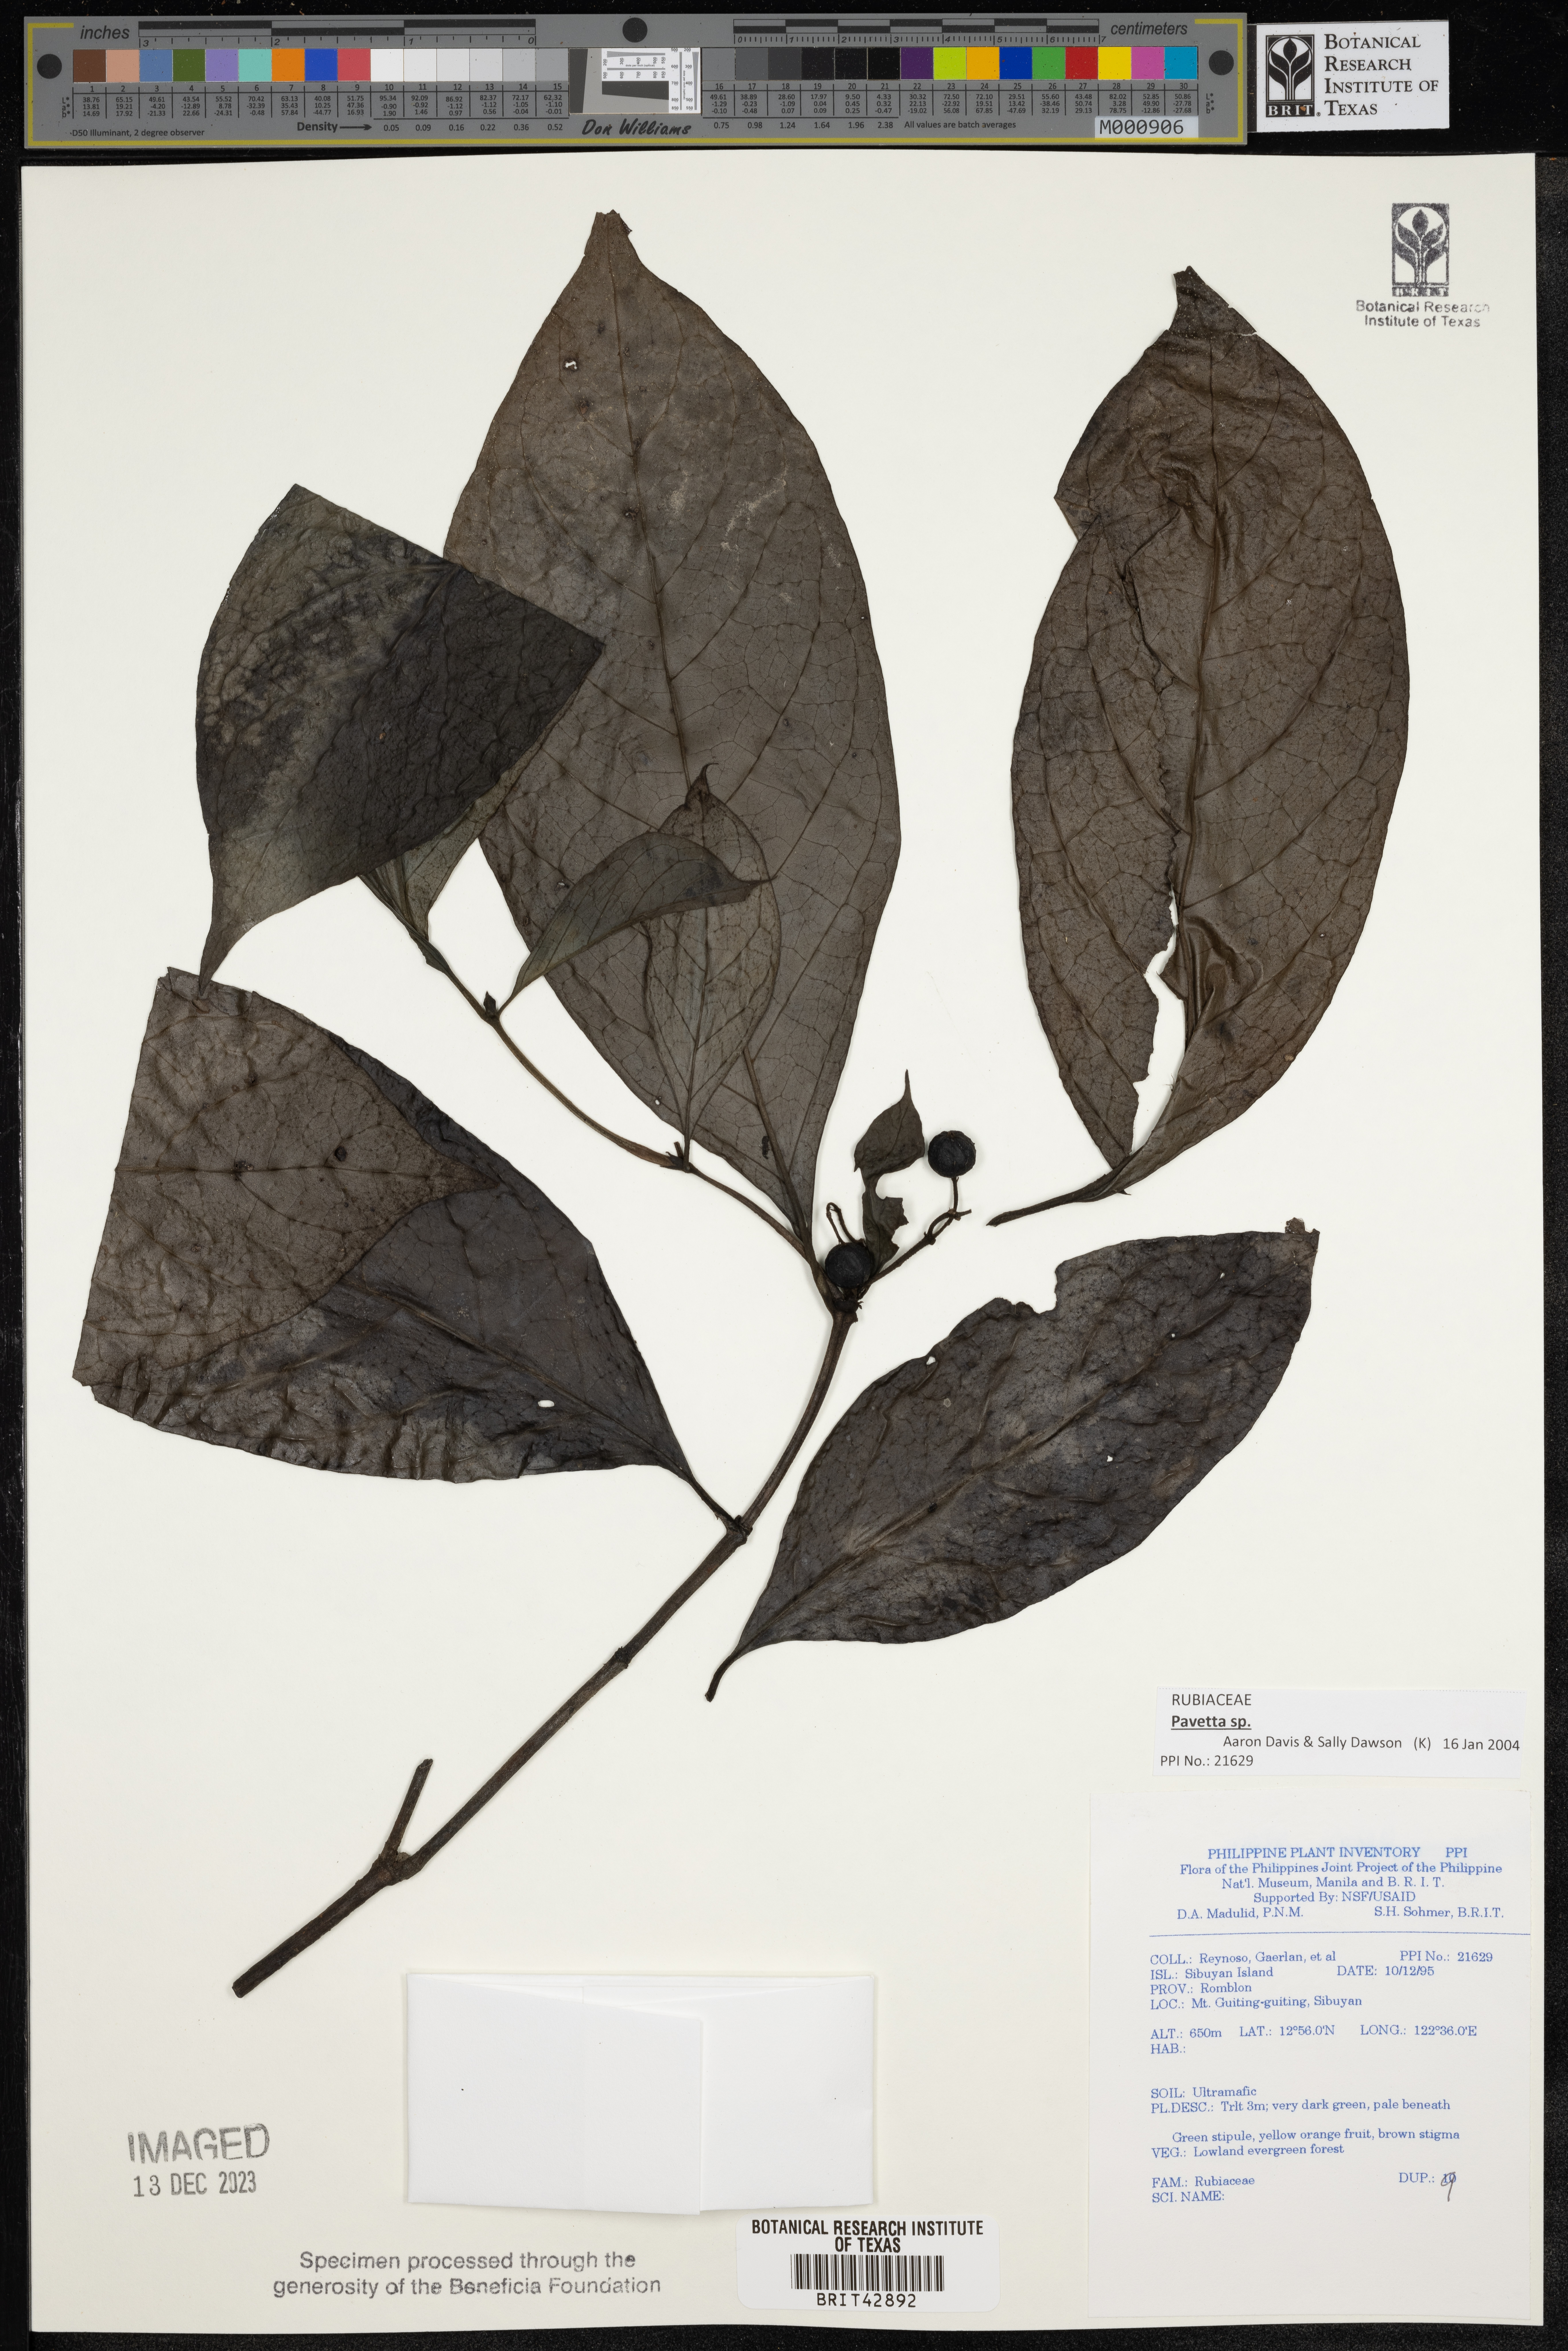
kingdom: Plantae
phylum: Tracheophyta
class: Magnoliopsida
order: Gentianales
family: Rubiaceae
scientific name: Rubiaceae
